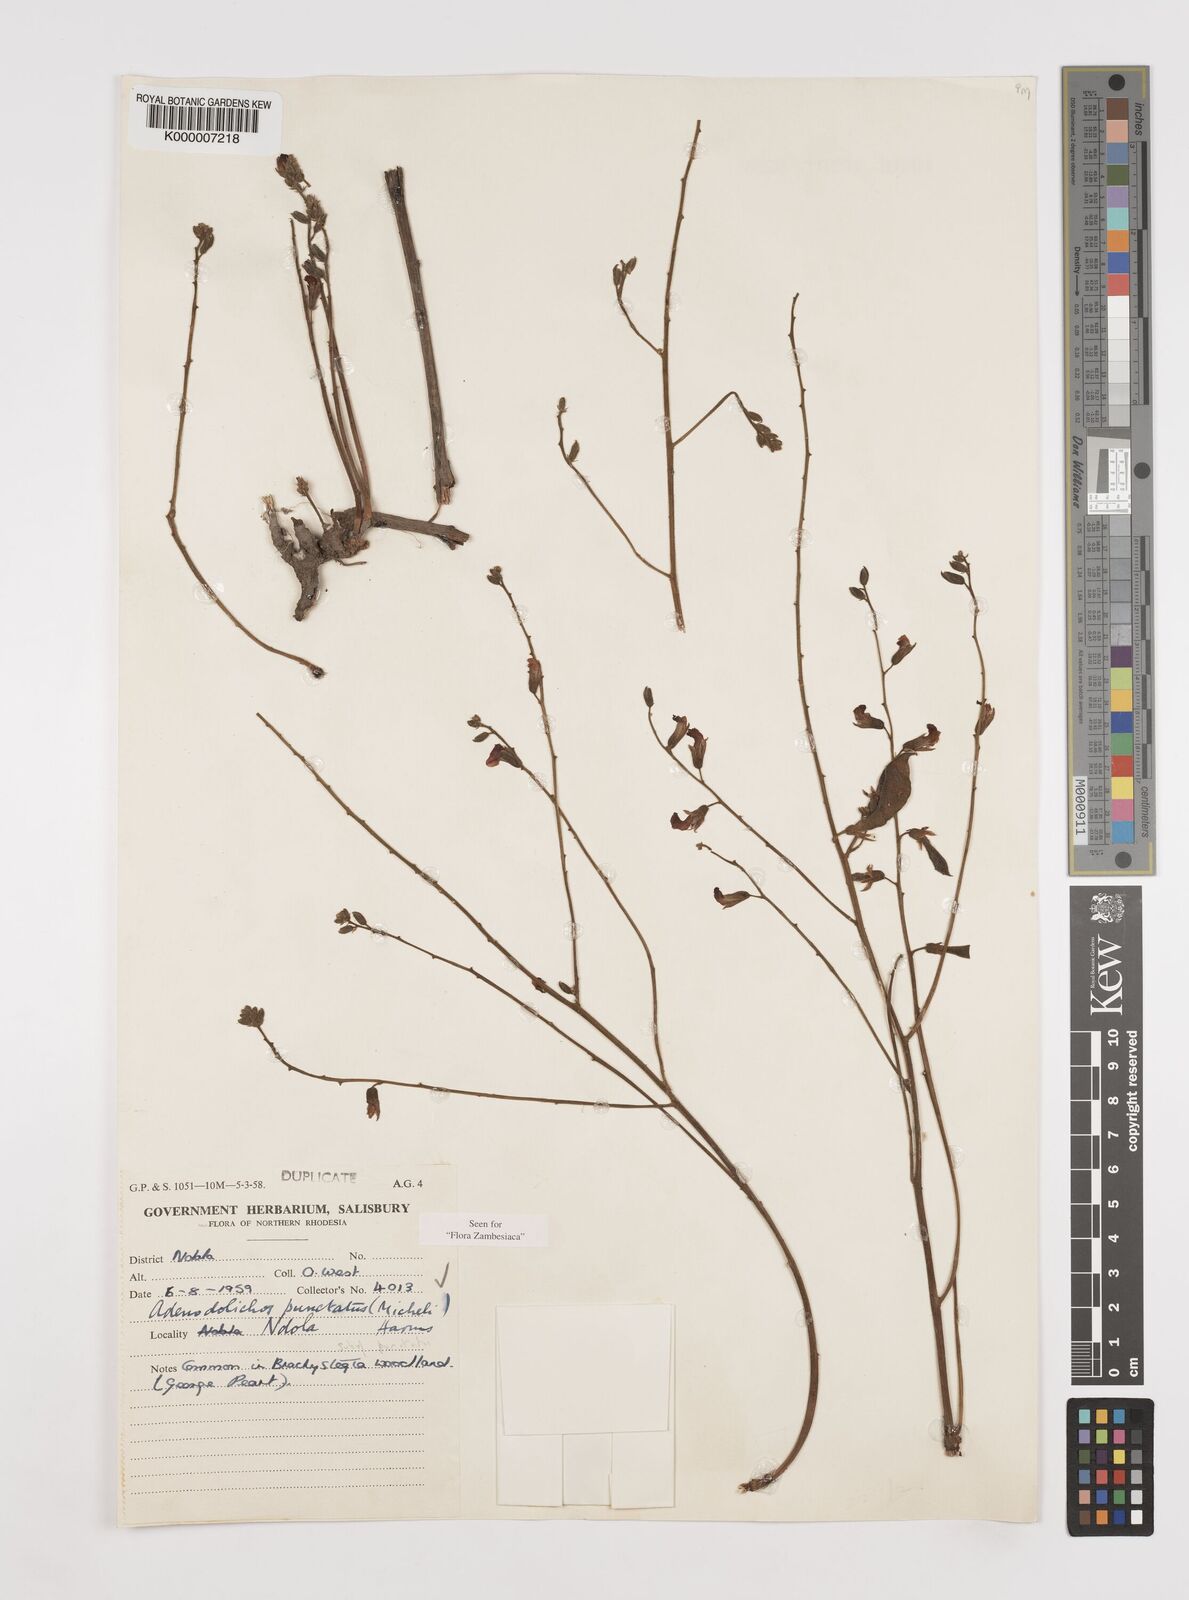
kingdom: Plantae
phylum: Tracheophyta
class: Magnoliopsida
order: Fabales
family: Fabaceae
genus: Adenodolichos
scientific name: Adenodolichos punctatus
